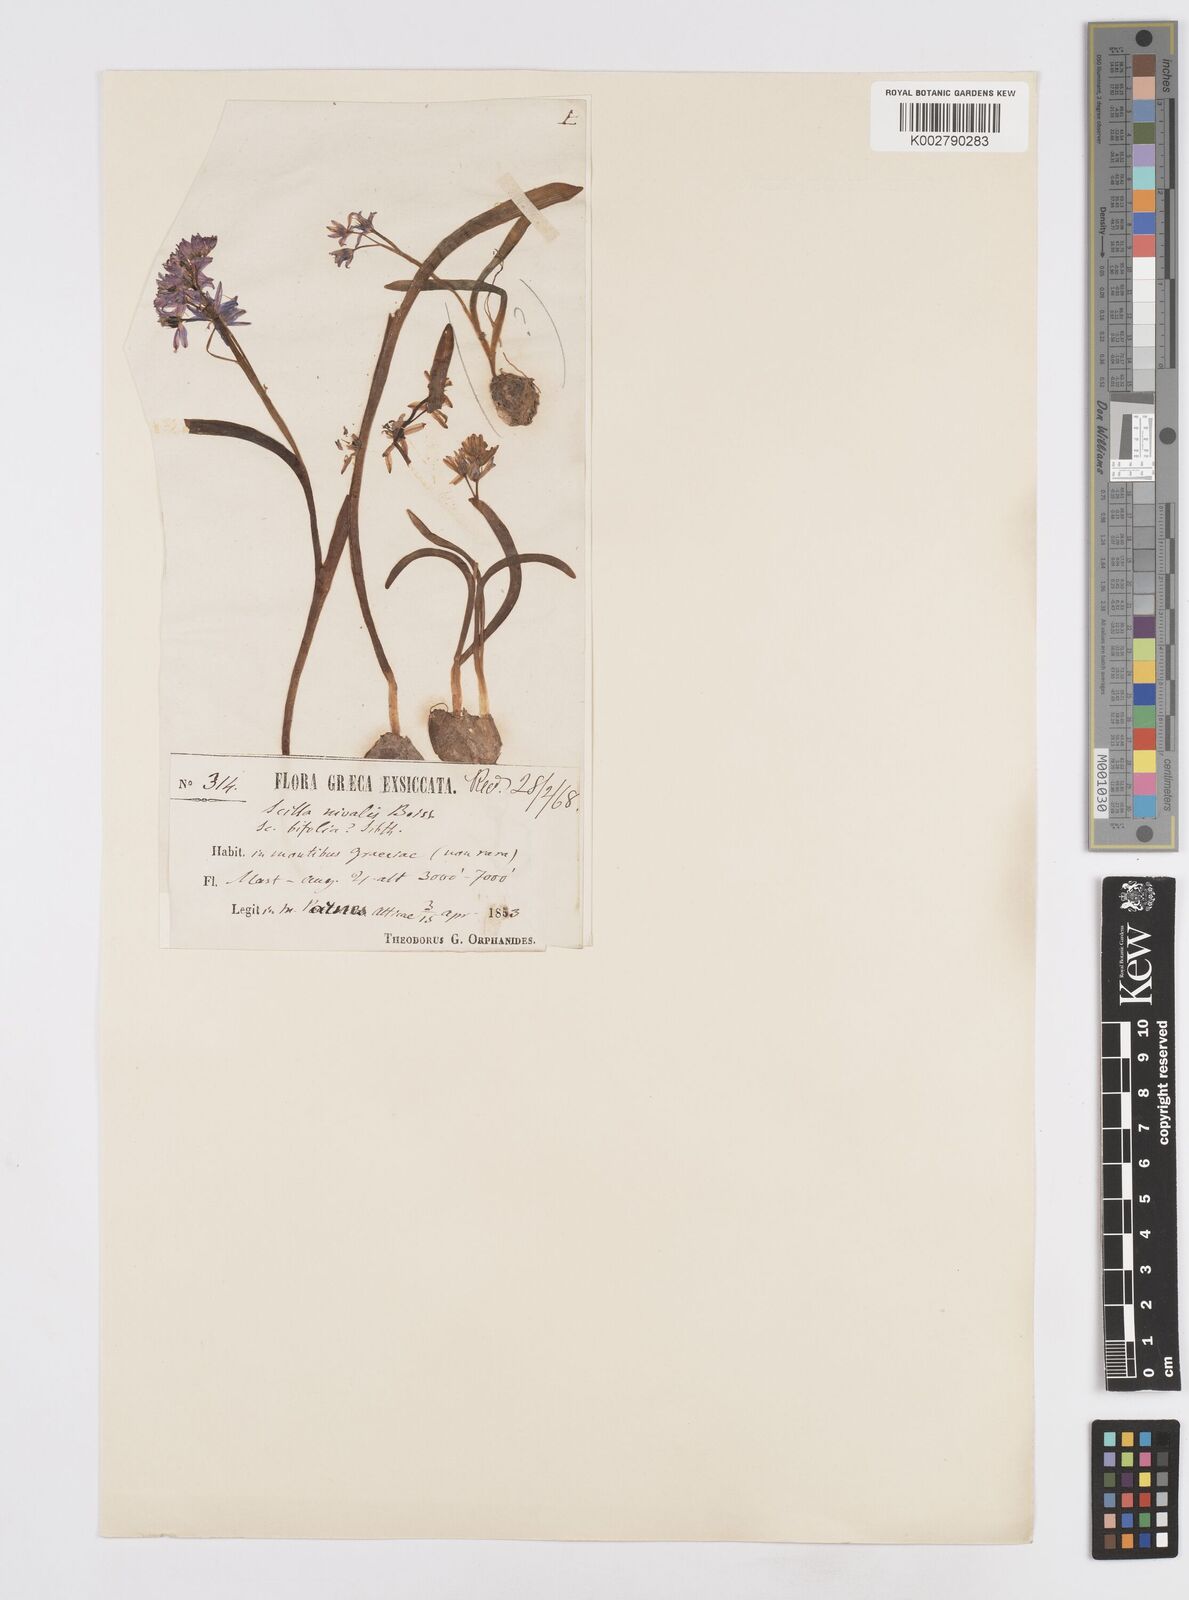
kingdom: Plantae
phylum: Tracheophyta
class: Liliopsida
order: Asparagales
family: Asparagaceae
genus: Scilla
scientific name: Scilla nivalis
